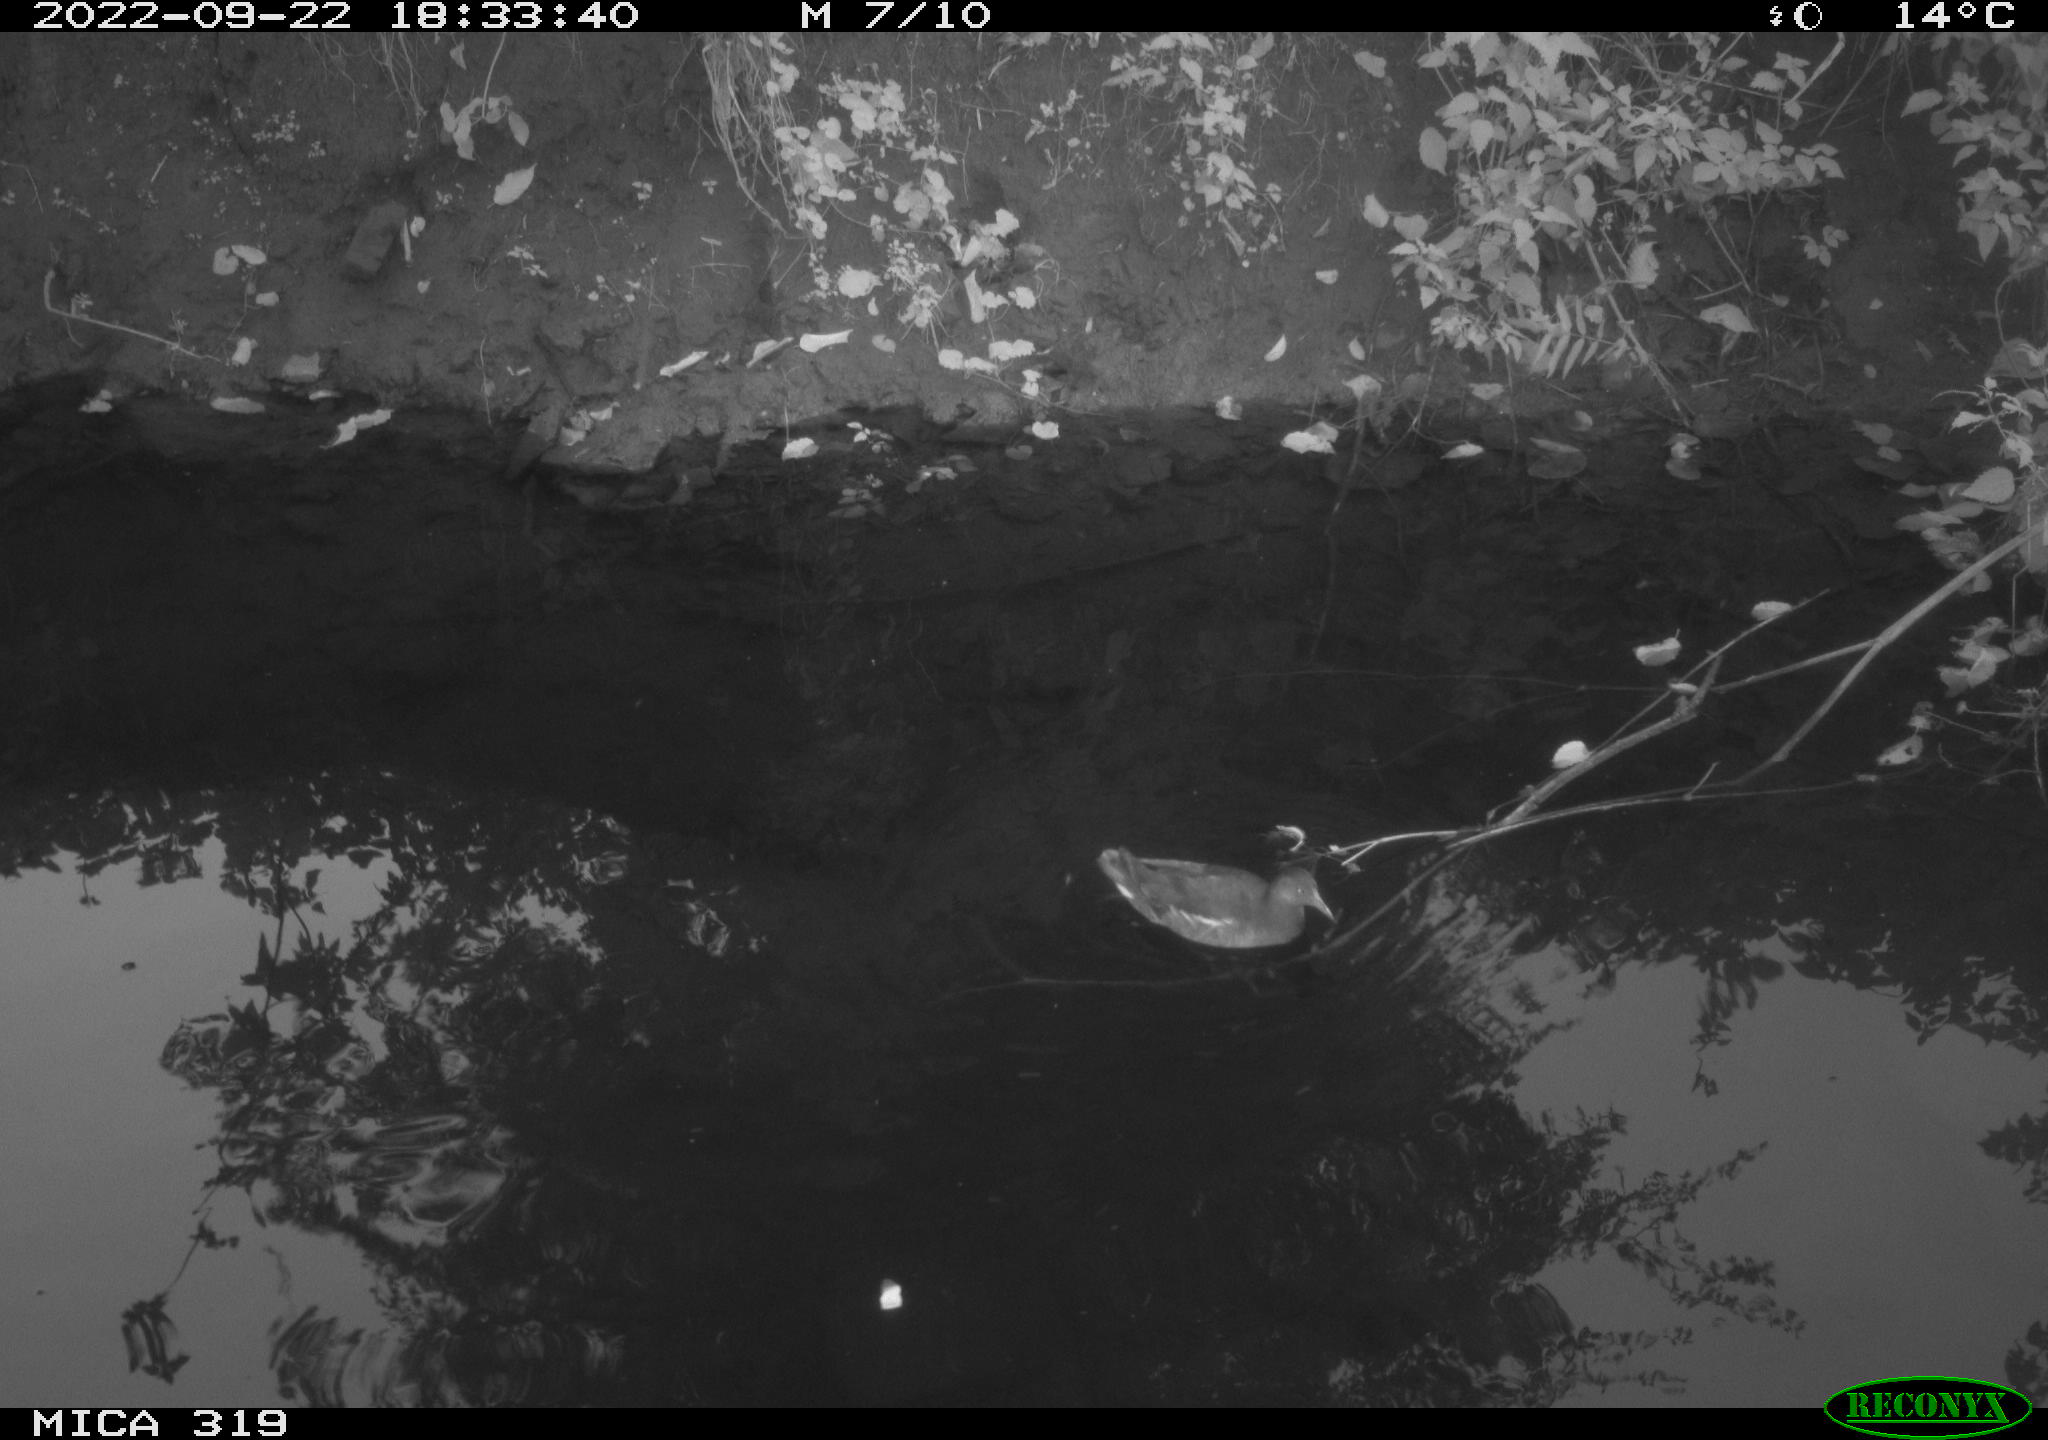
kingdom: Animalia
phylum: Chordata
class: Aves
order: Gruiformes
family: Rallidae
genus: Gallinula
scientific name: Gallinula chloropus
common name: Common moorhen
